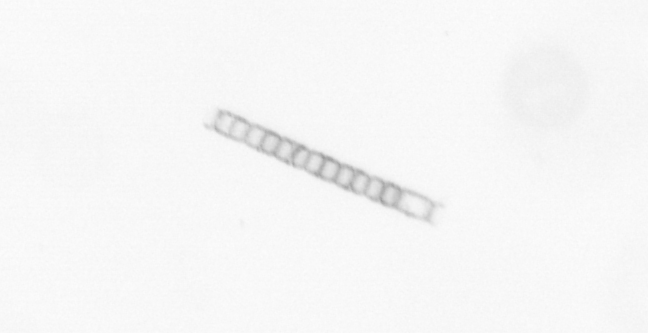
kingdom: Chromista
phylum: Ochrophyta
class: Bacillariophyceae
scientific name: Bacillariophyceae
